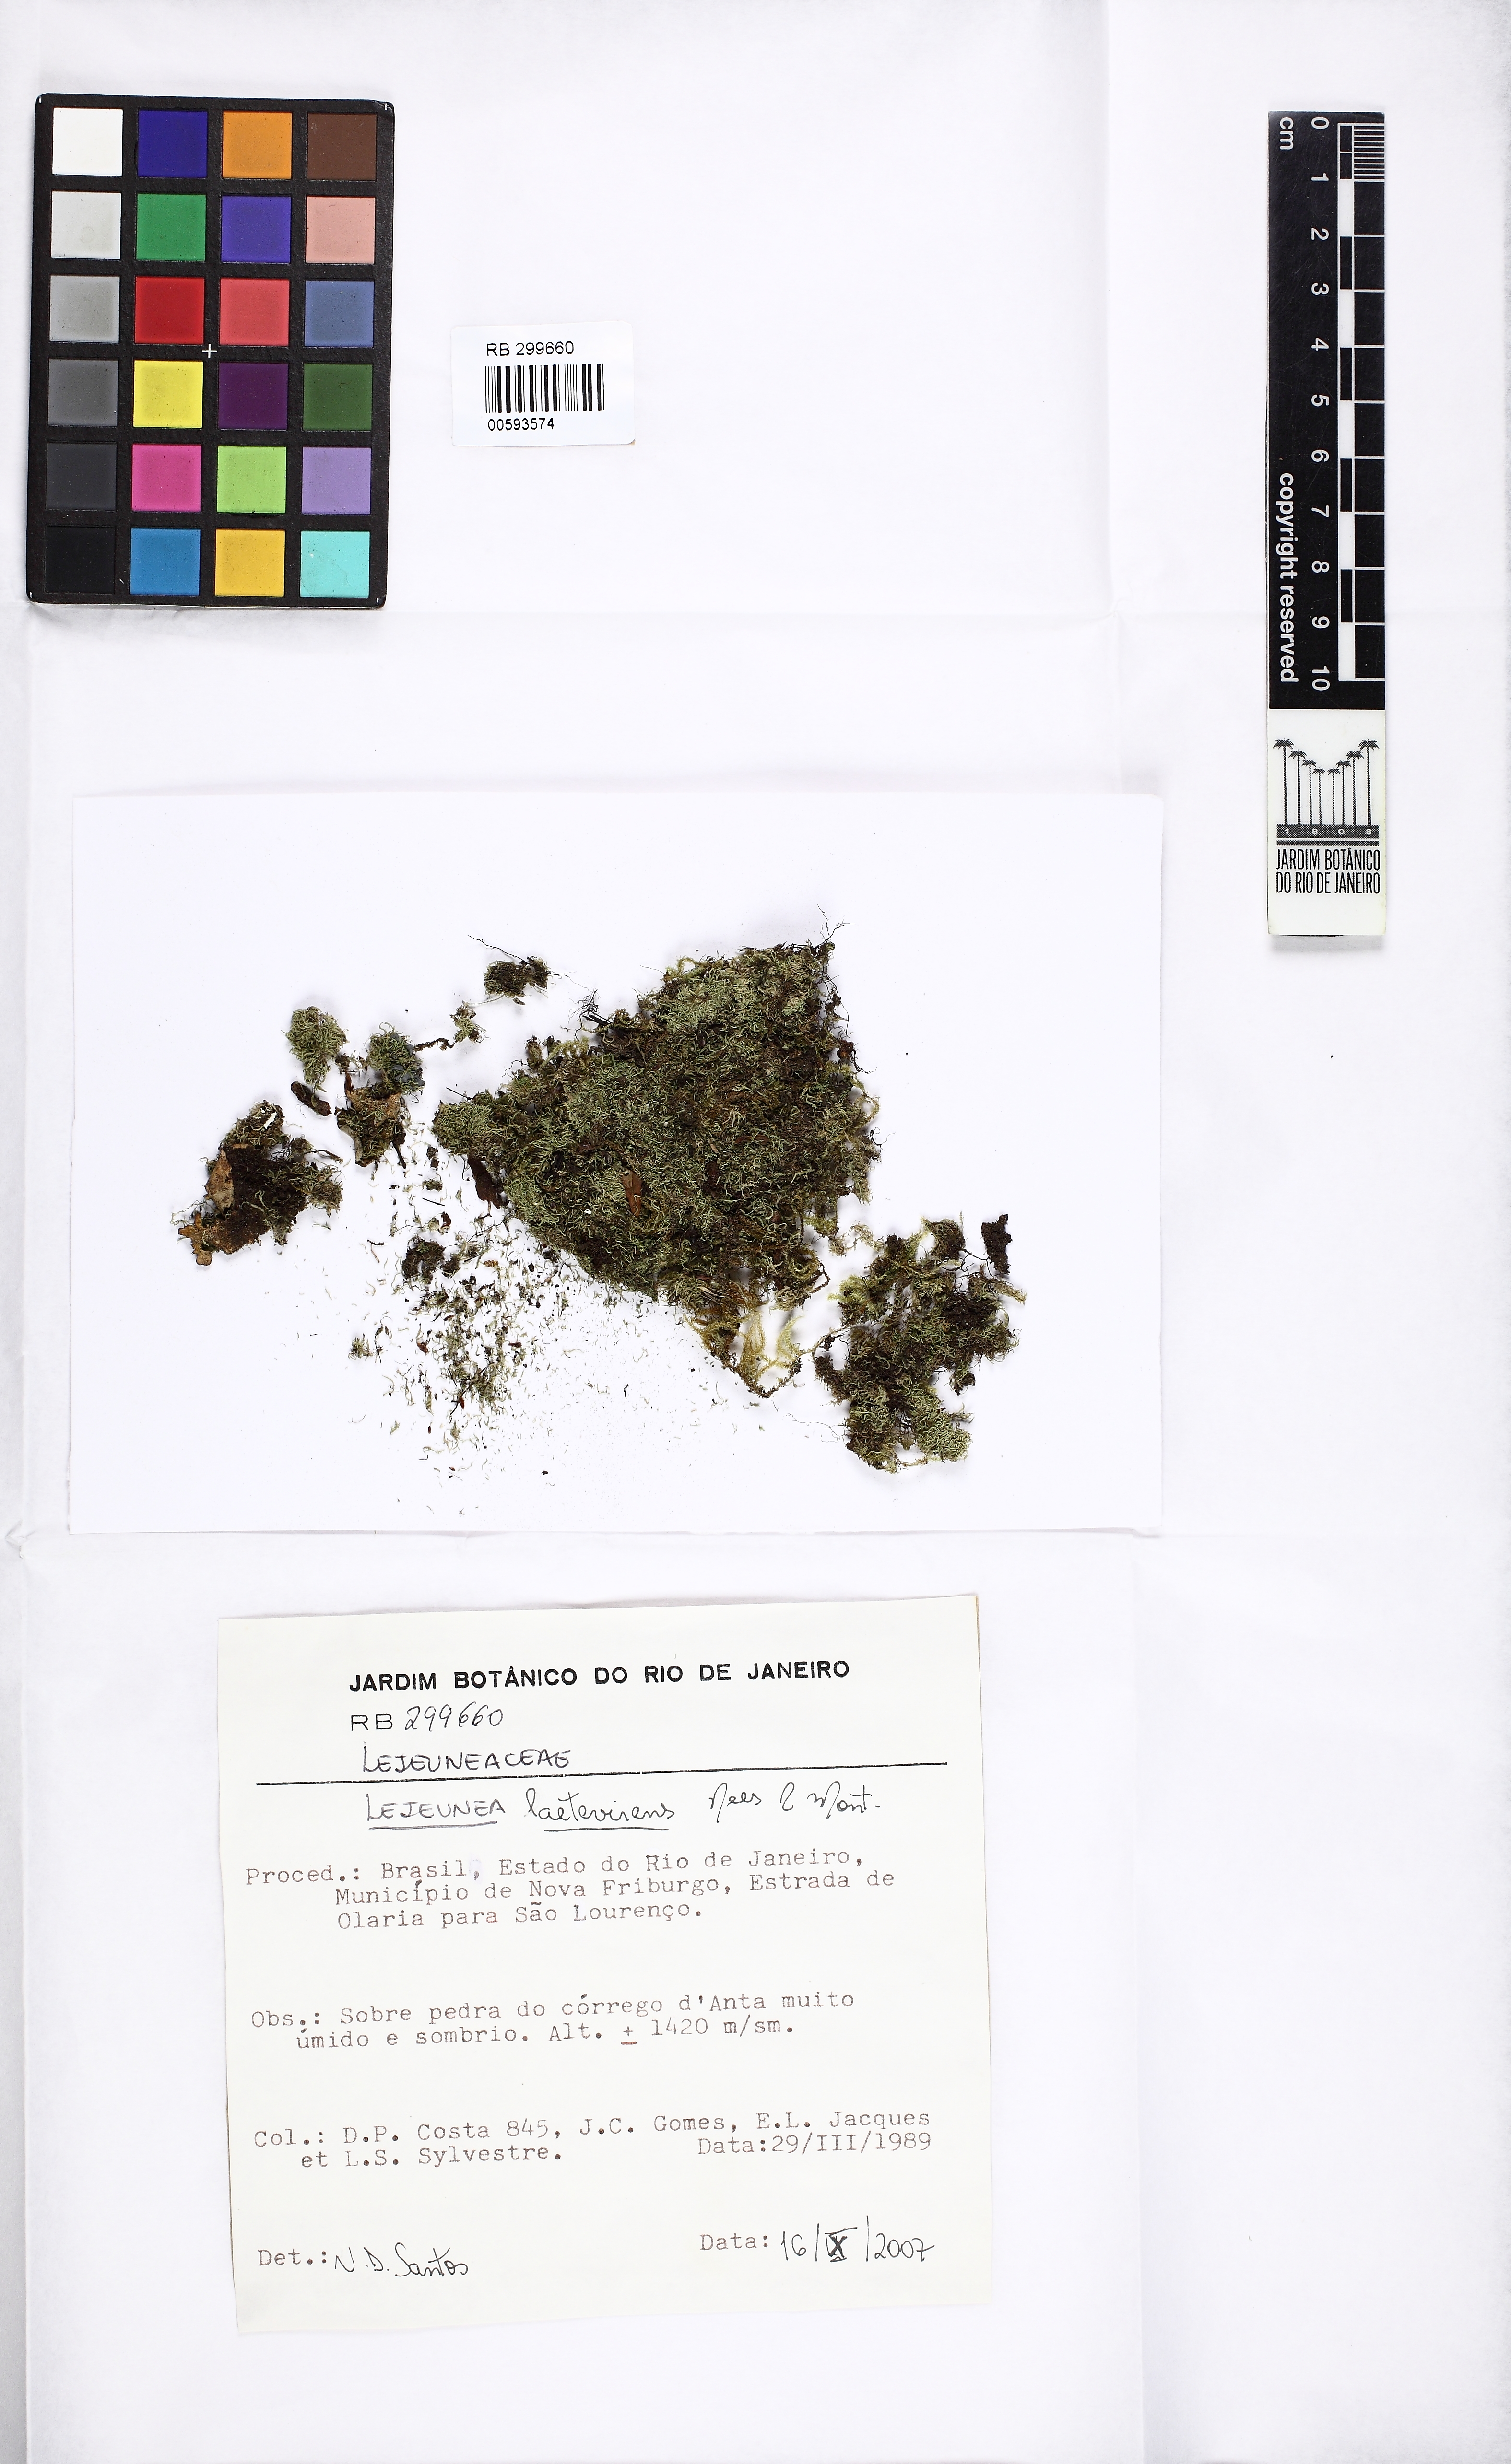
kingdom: Plantae
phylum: Marchantiophyta
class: Jungermanniopsida
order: Porellales
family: Lejeuneaceae
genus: Lejeunea
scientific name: Lejeunea laetevirens
